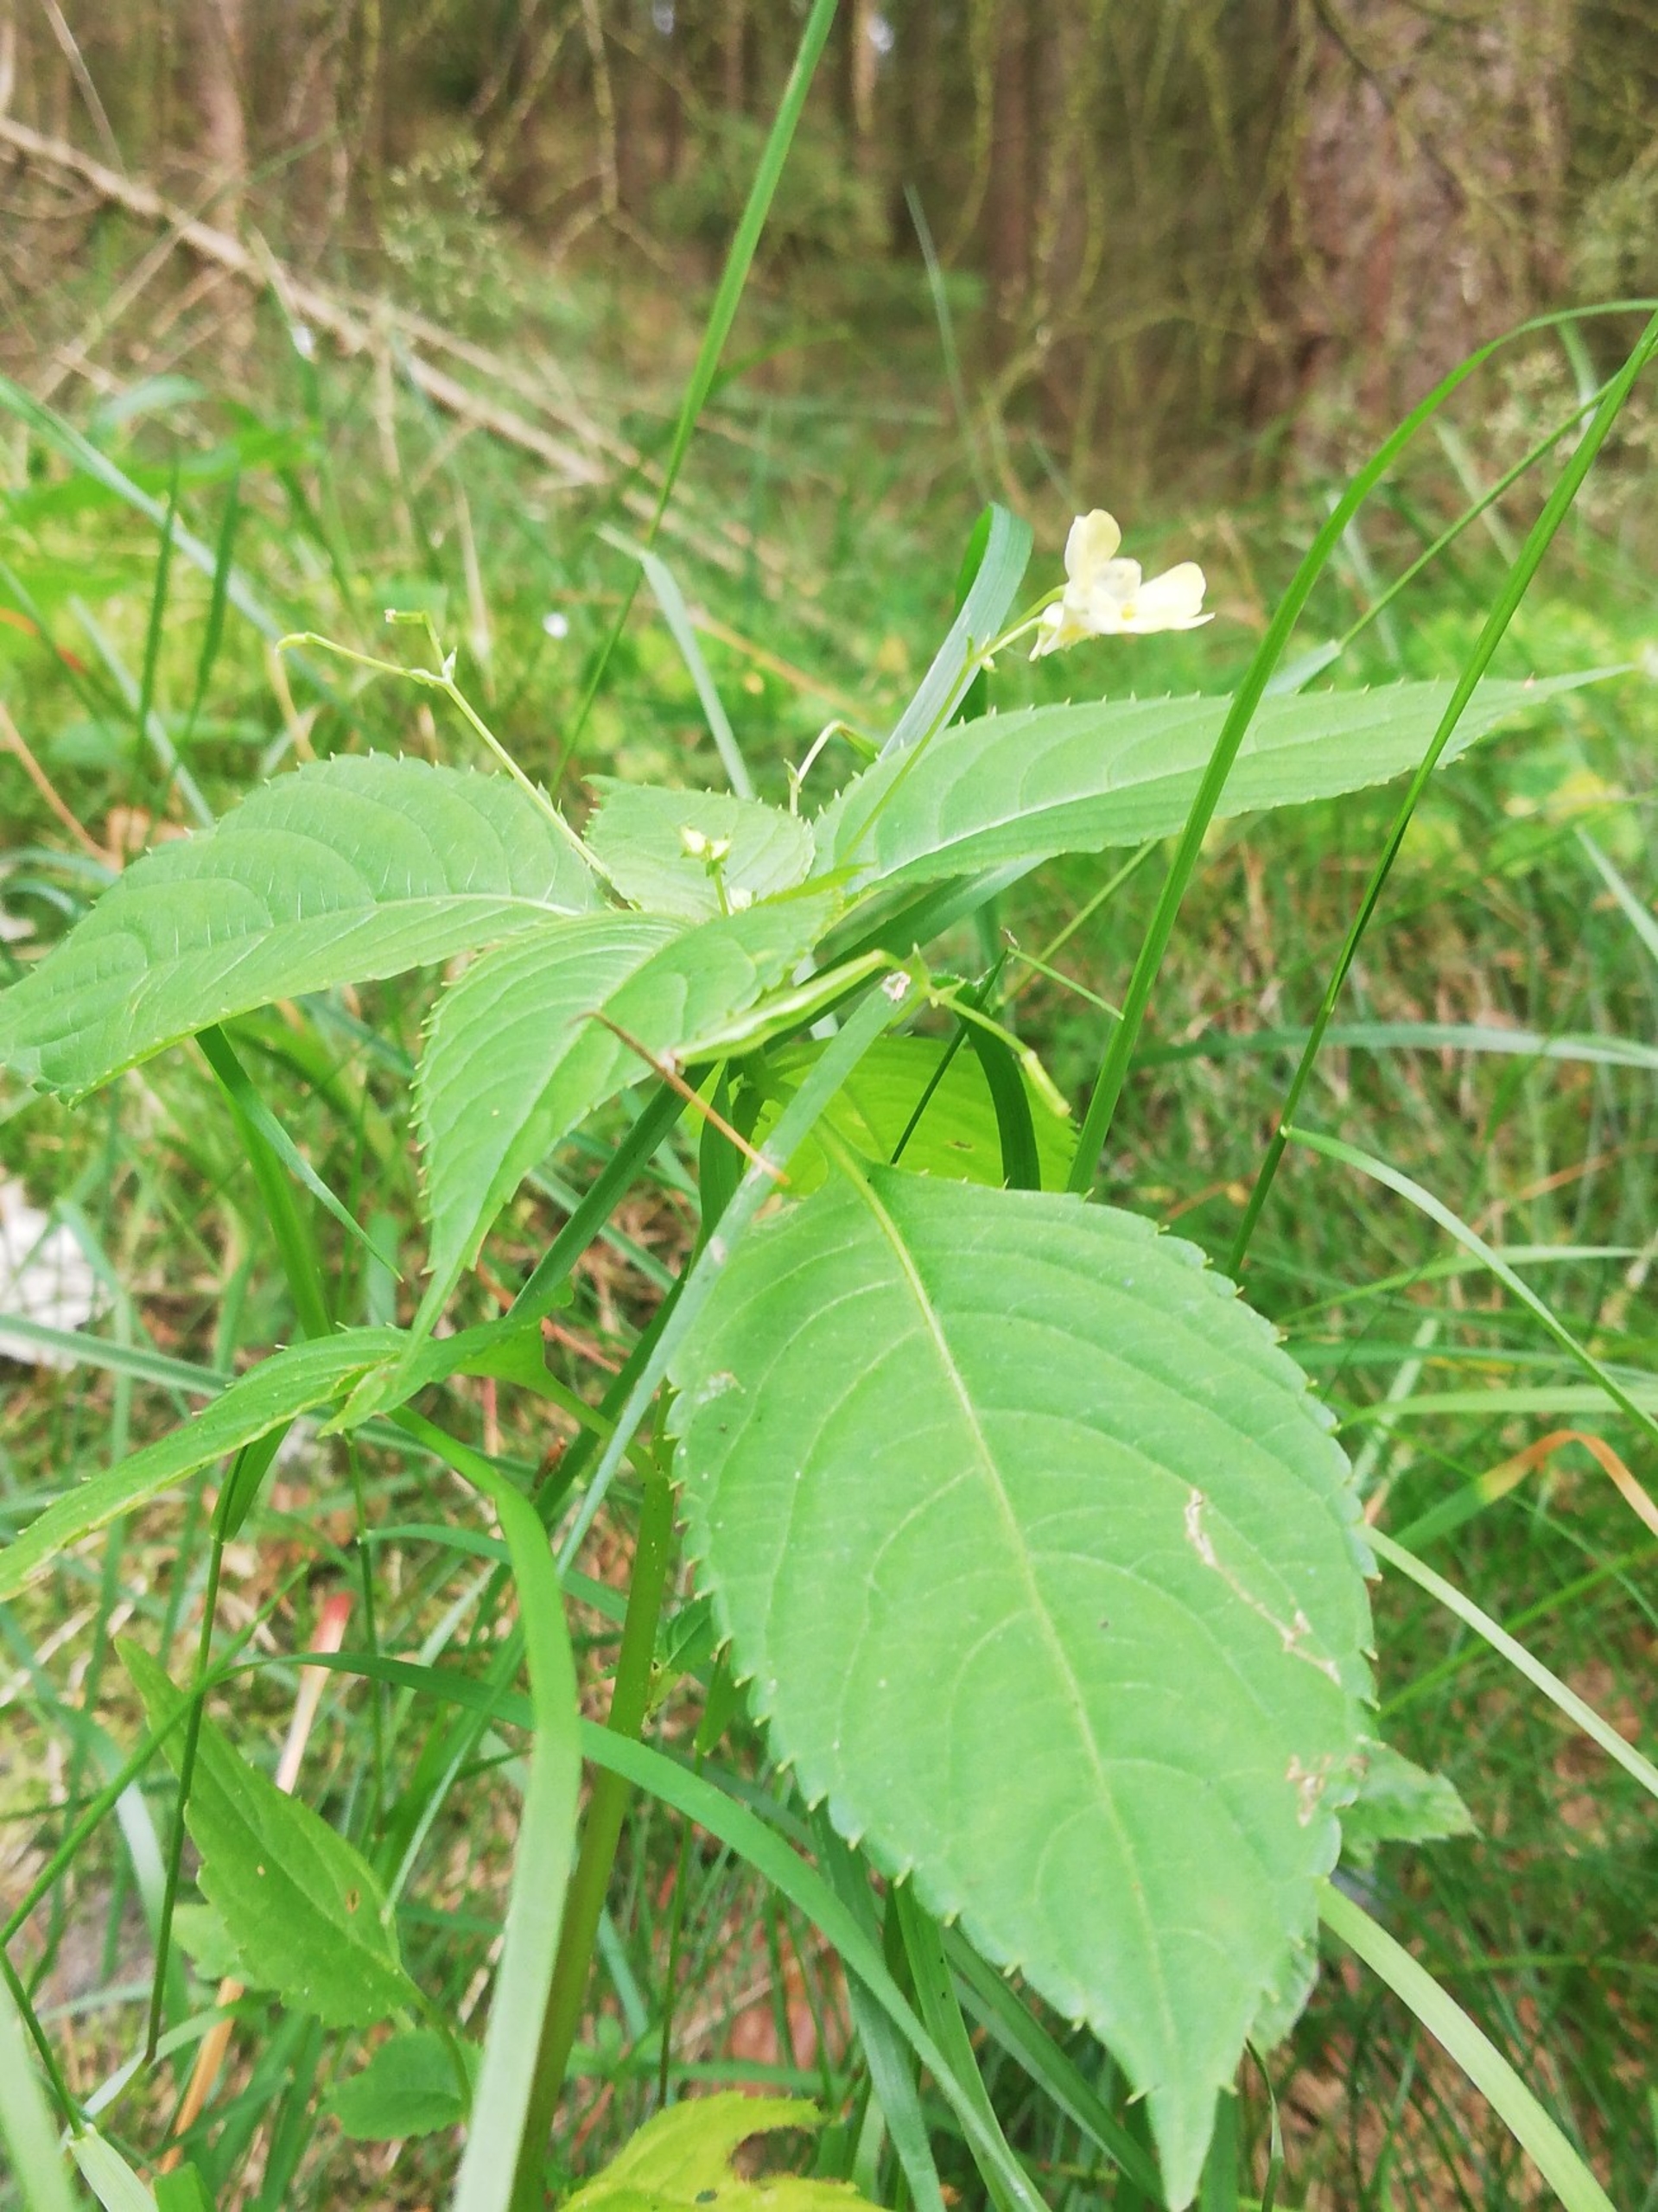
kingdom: Plantae
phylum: Tracheophyta
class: Magnoliopsida
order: Ericales
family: Balsaminaceae
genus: Impatiens
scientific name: Impatiens parviflora
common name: Småblomstret balsamin
